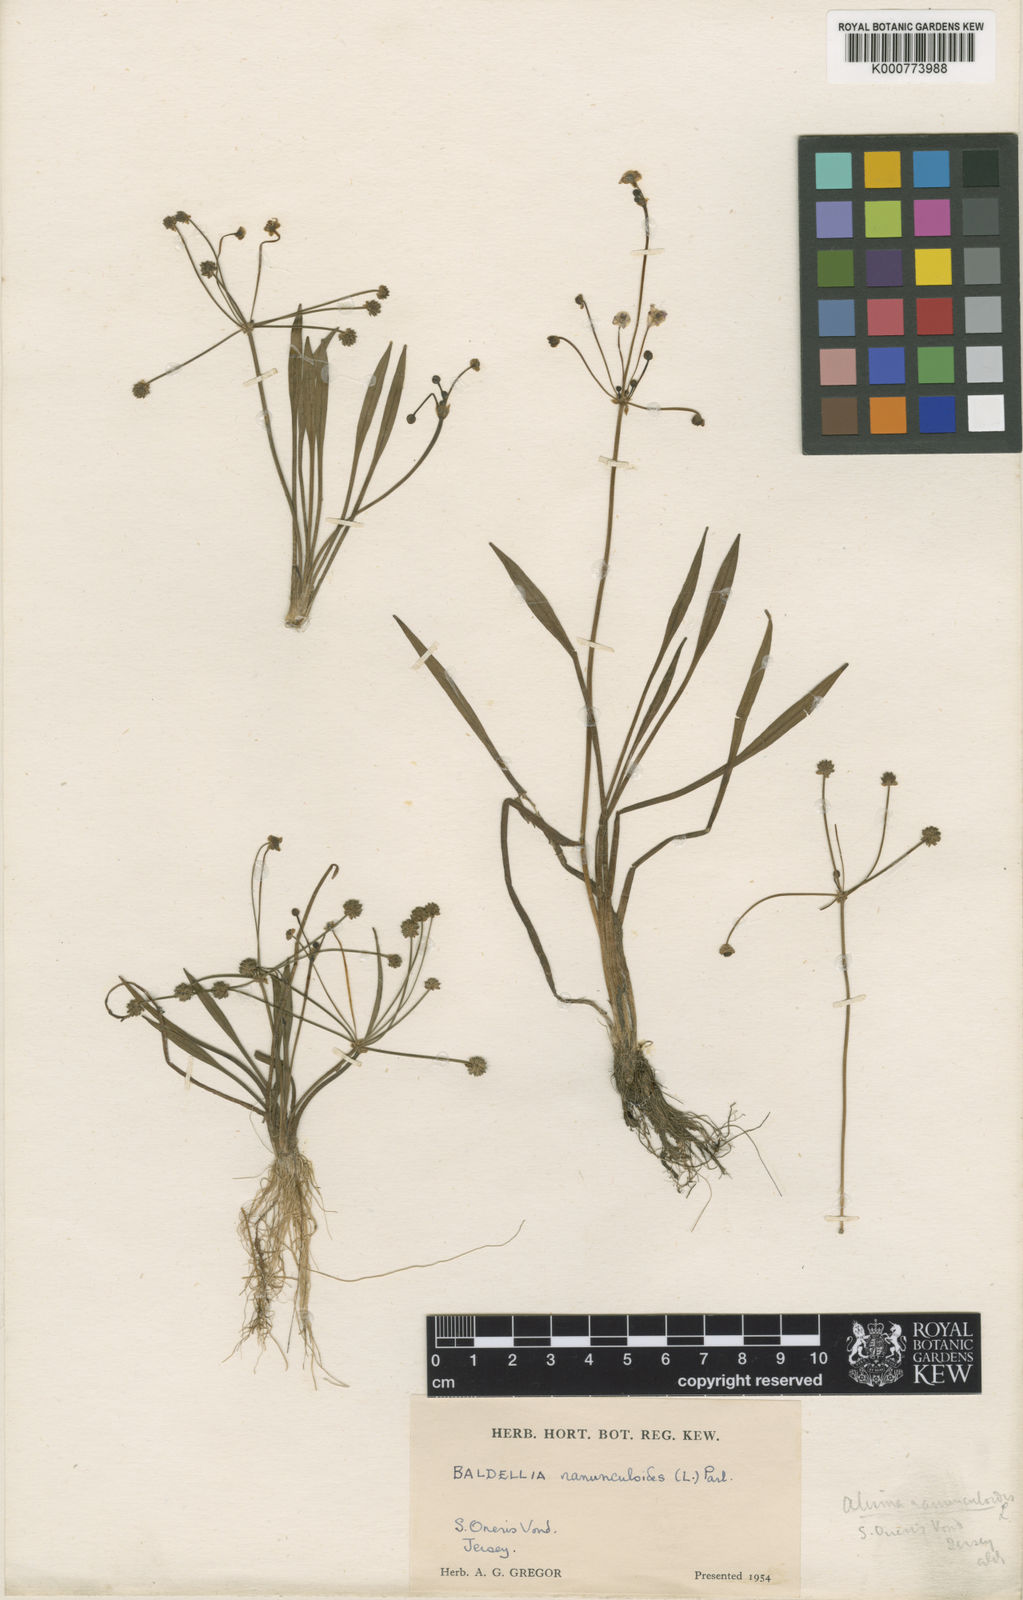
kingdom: Plantae
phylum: Tracheophyta
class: Liliopsida
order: Alismatales
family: Alismataceae
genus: Baldellia
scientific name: Baldellia ranunculoides
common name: Lesser water-plantain
